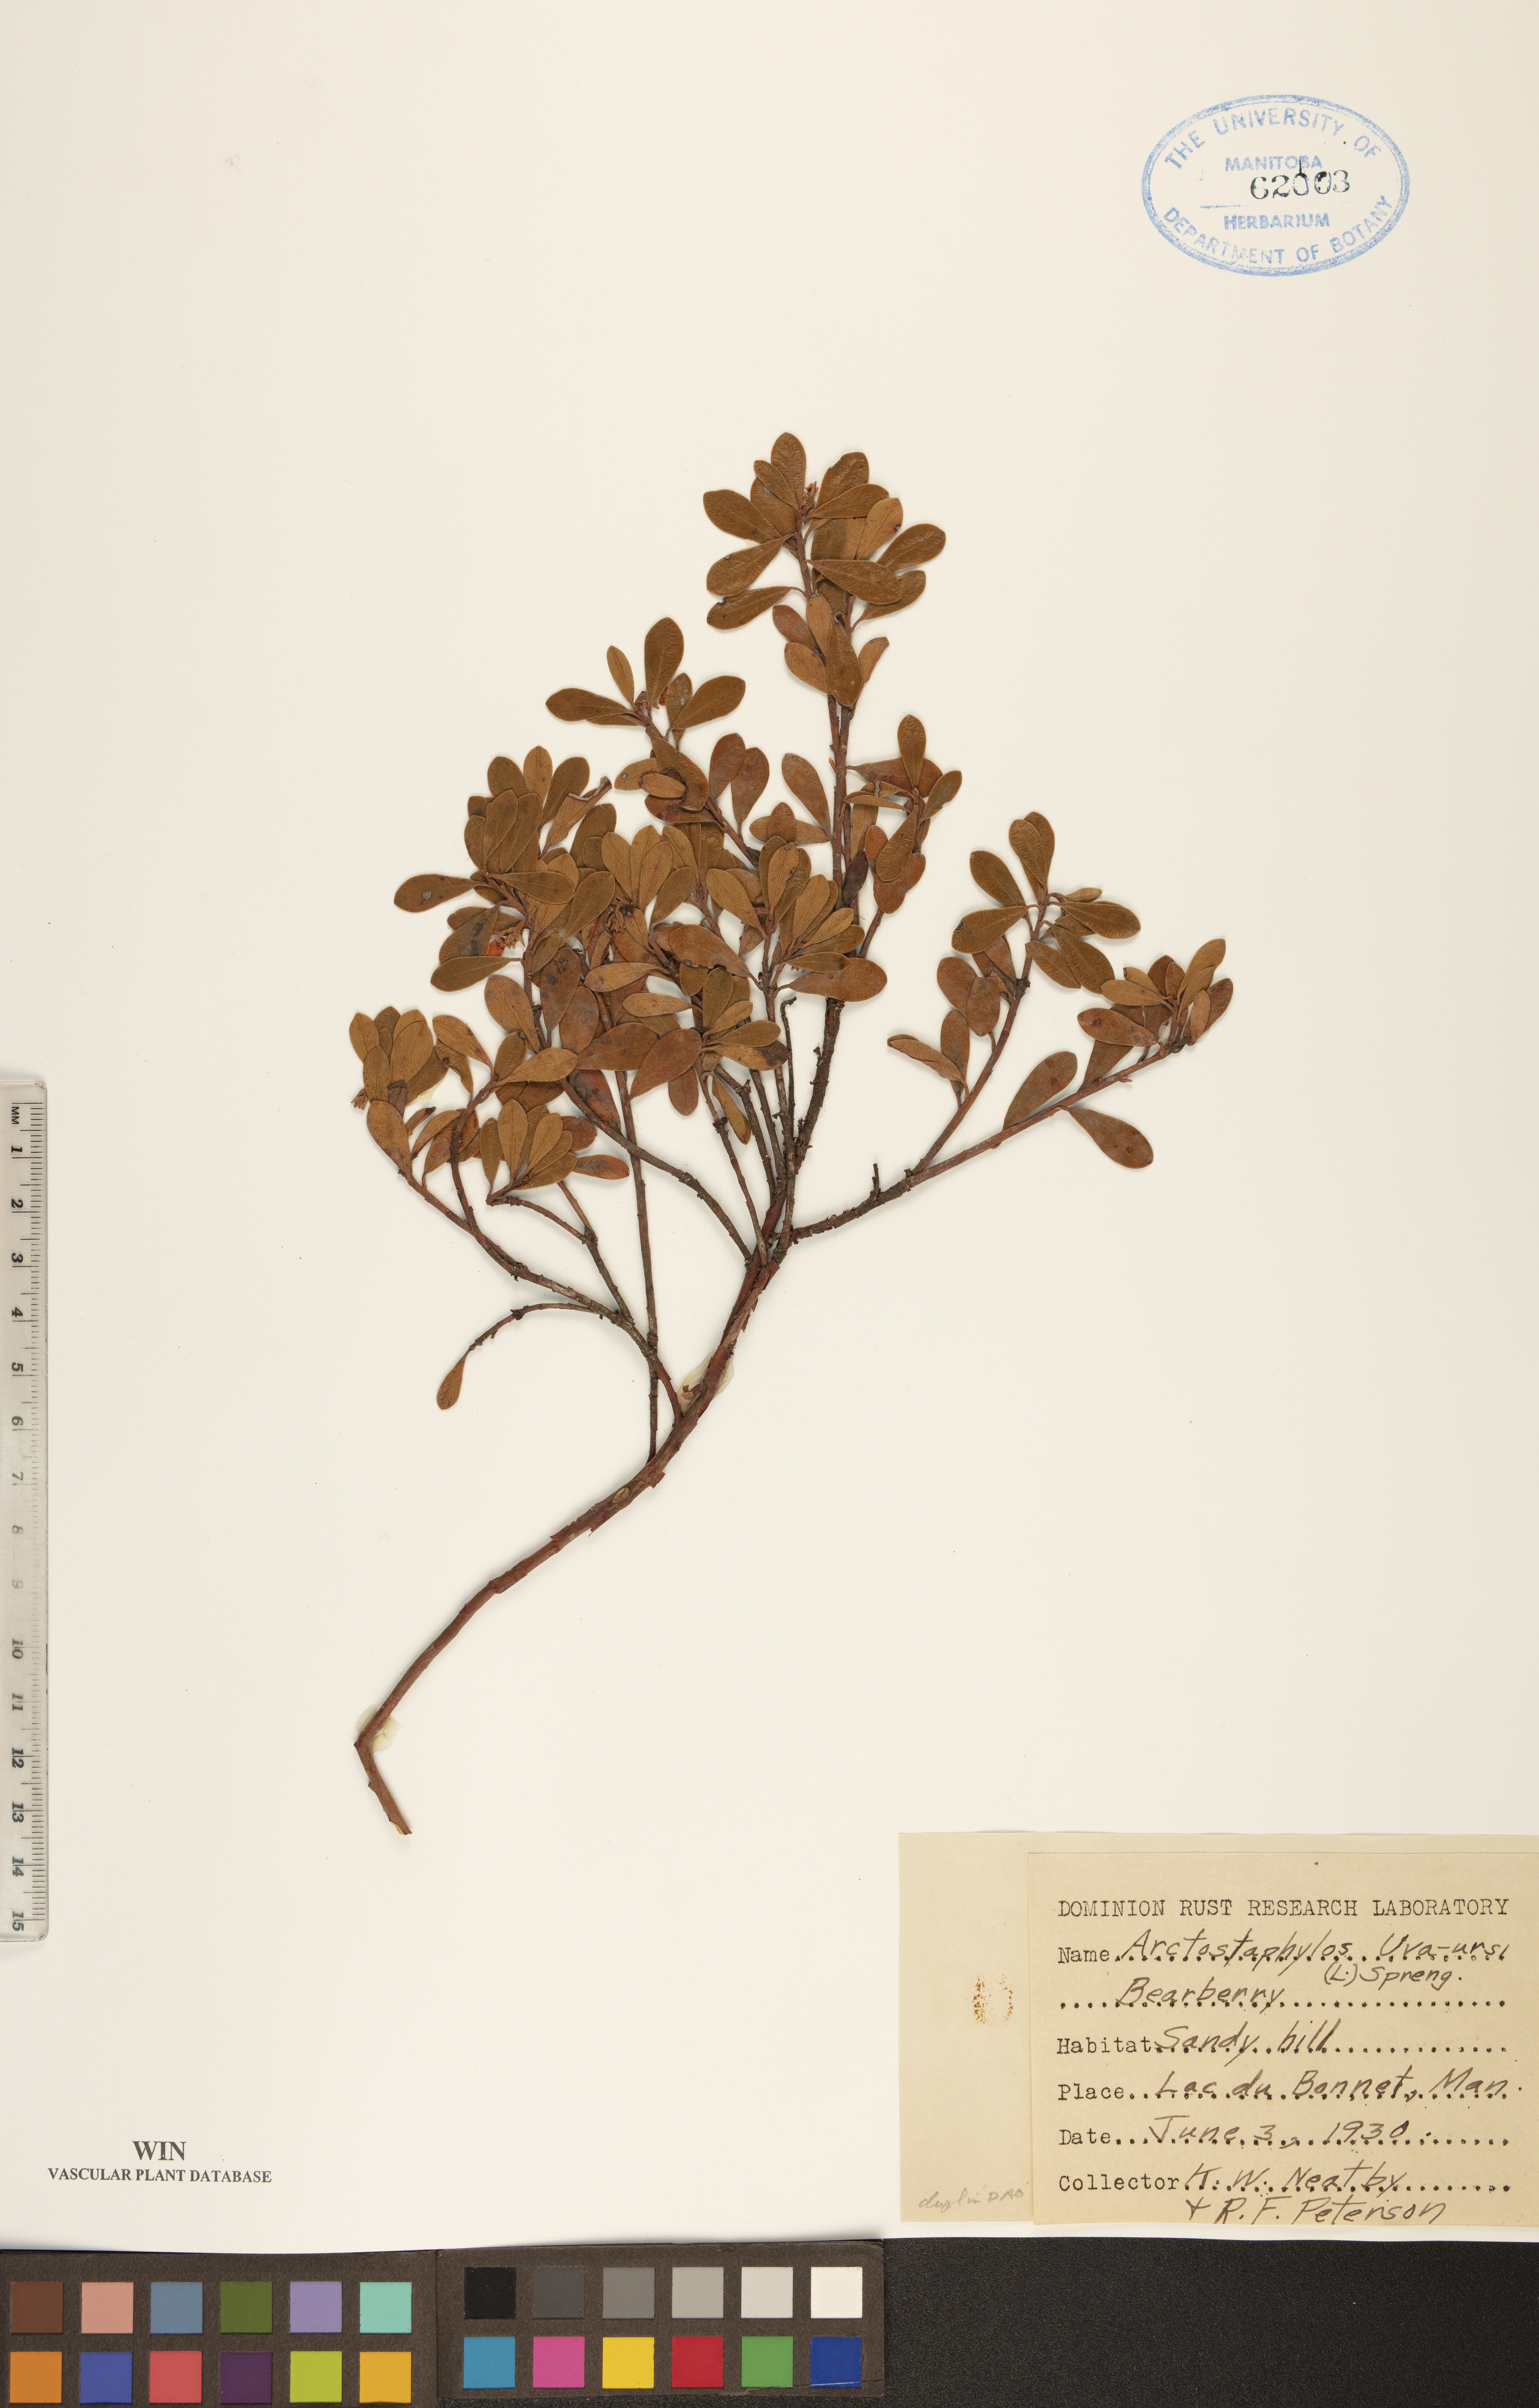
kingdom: Plantae
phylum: Tracheophyta
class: Magnoliopsida
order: Ericales
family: Ericaceae
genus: Arctostaphylos
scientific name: Arctostaphylos uva-ursi
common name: Bearberry
